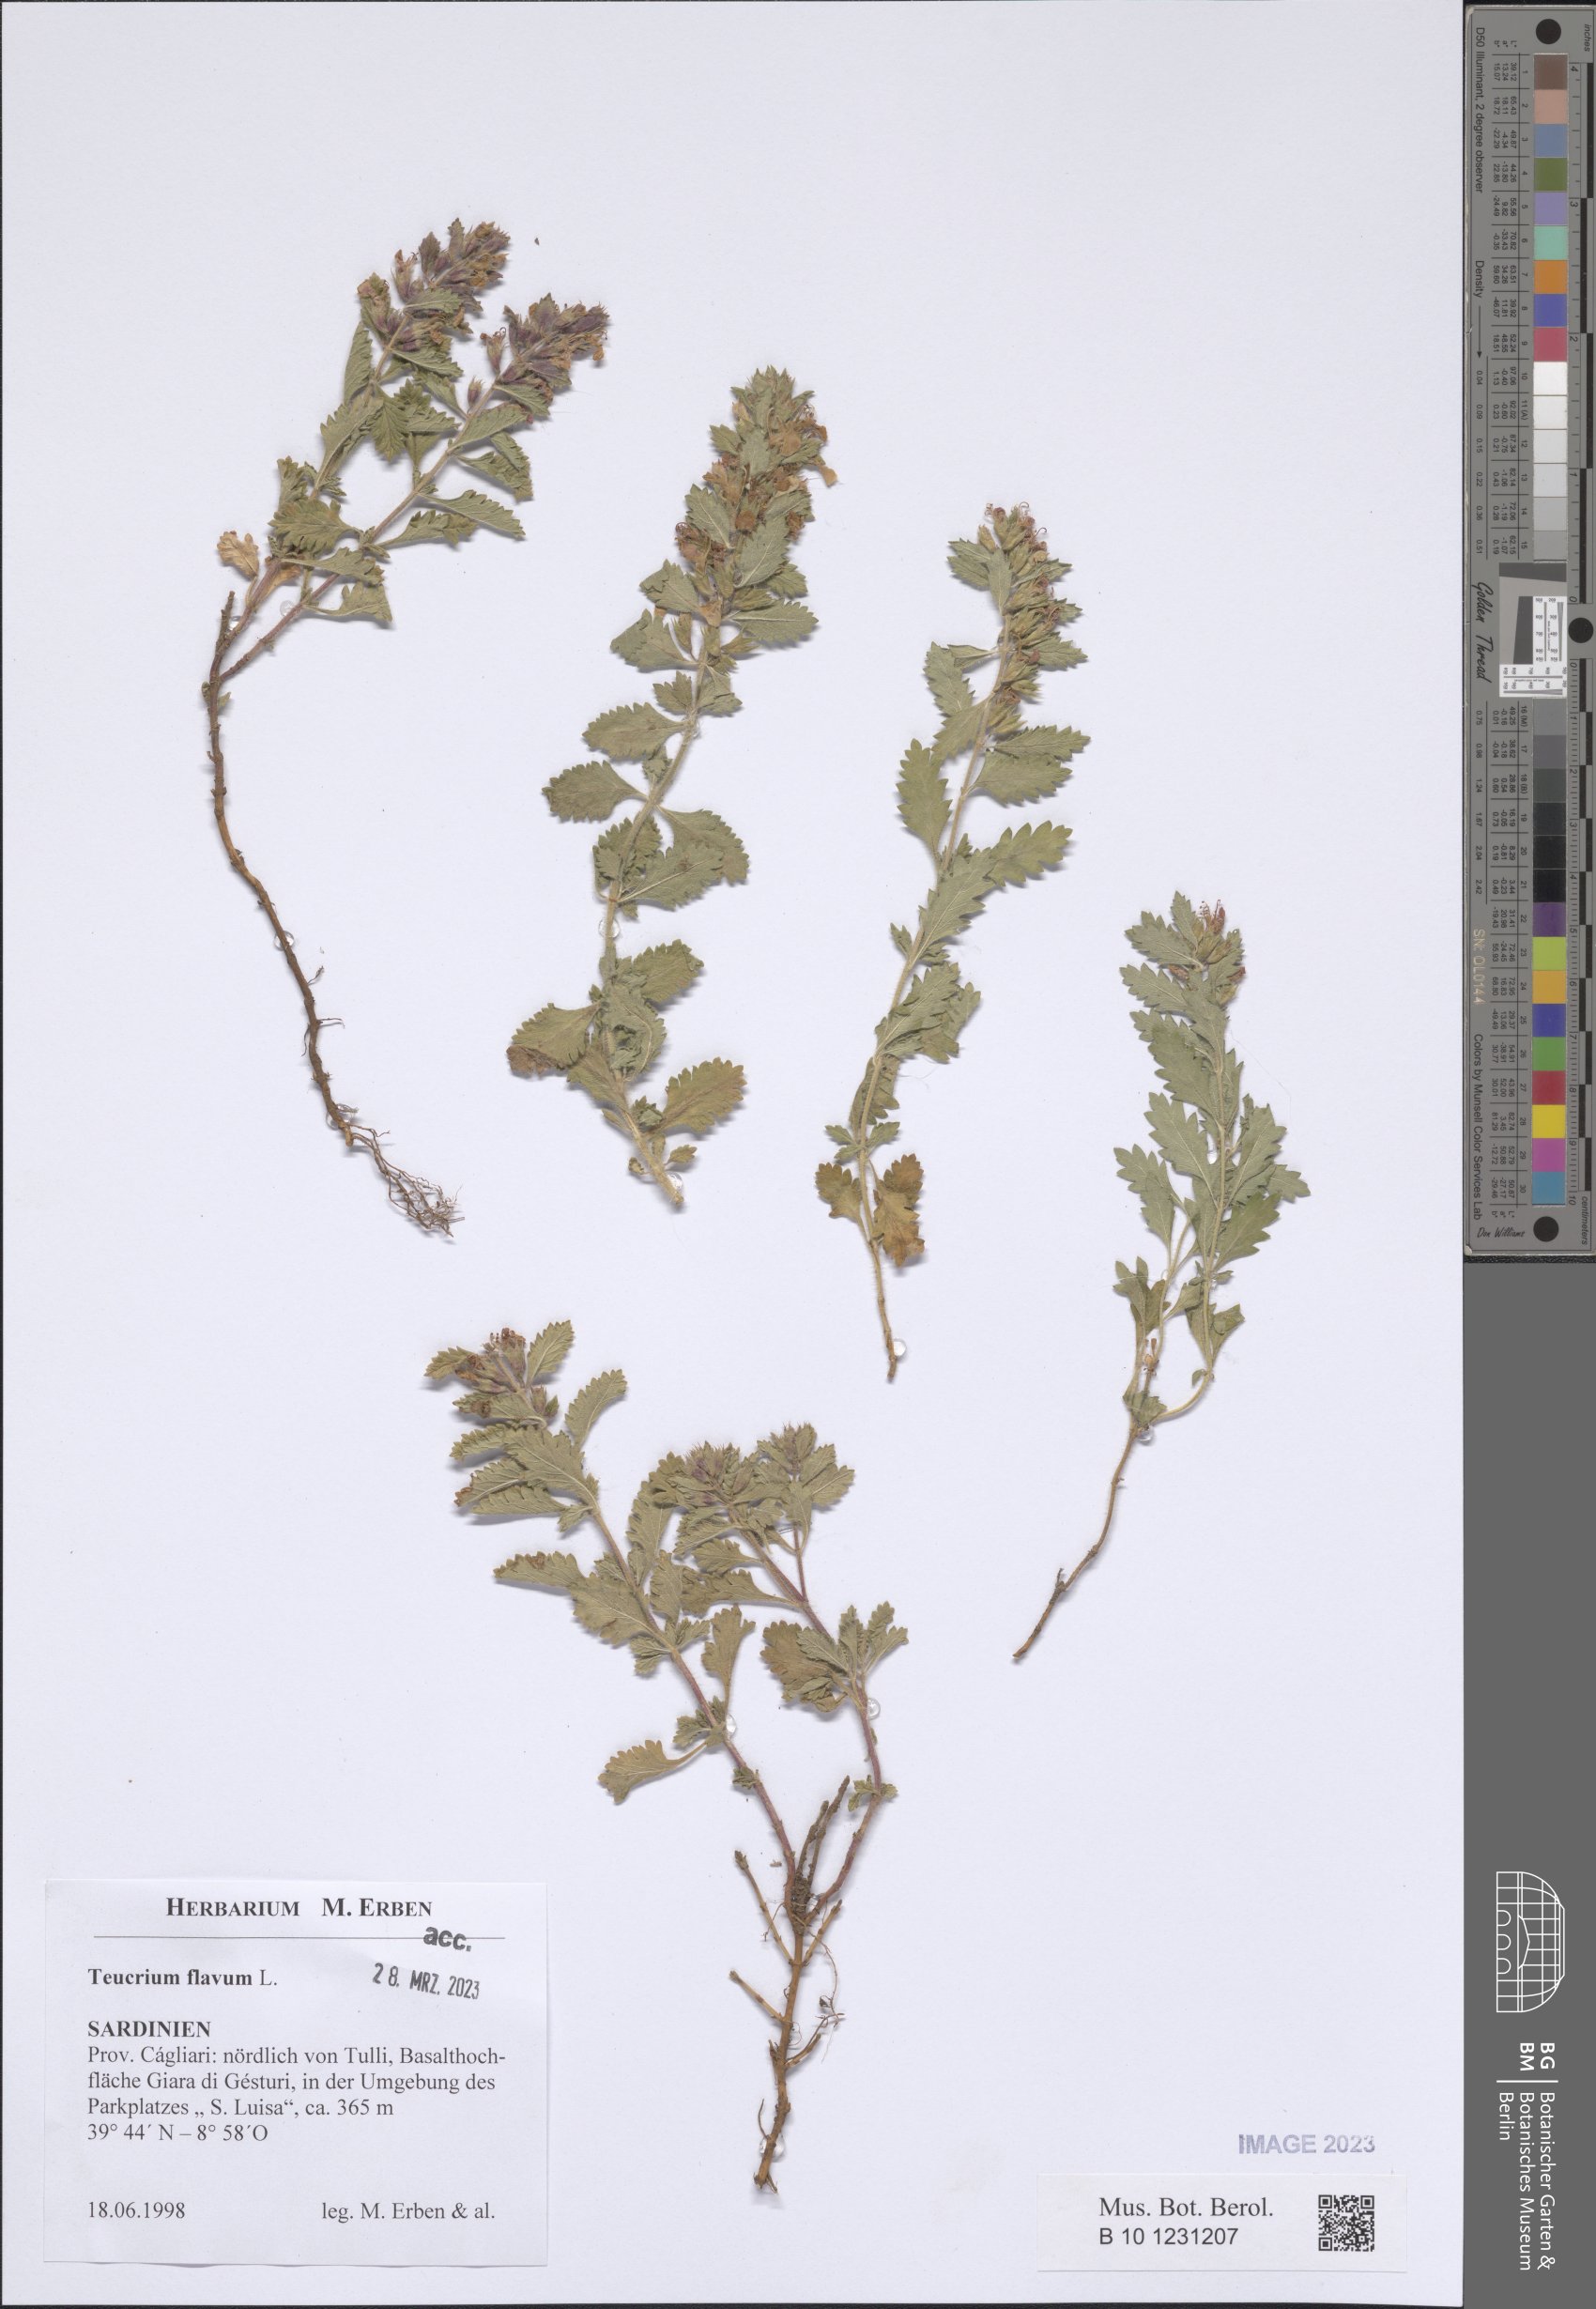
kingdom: Plantae
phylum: Tracheophyta
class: Magnoliopsida
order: Lamiales
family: Lamiaceae
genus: Teucrium
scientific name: Teucrium flavum
